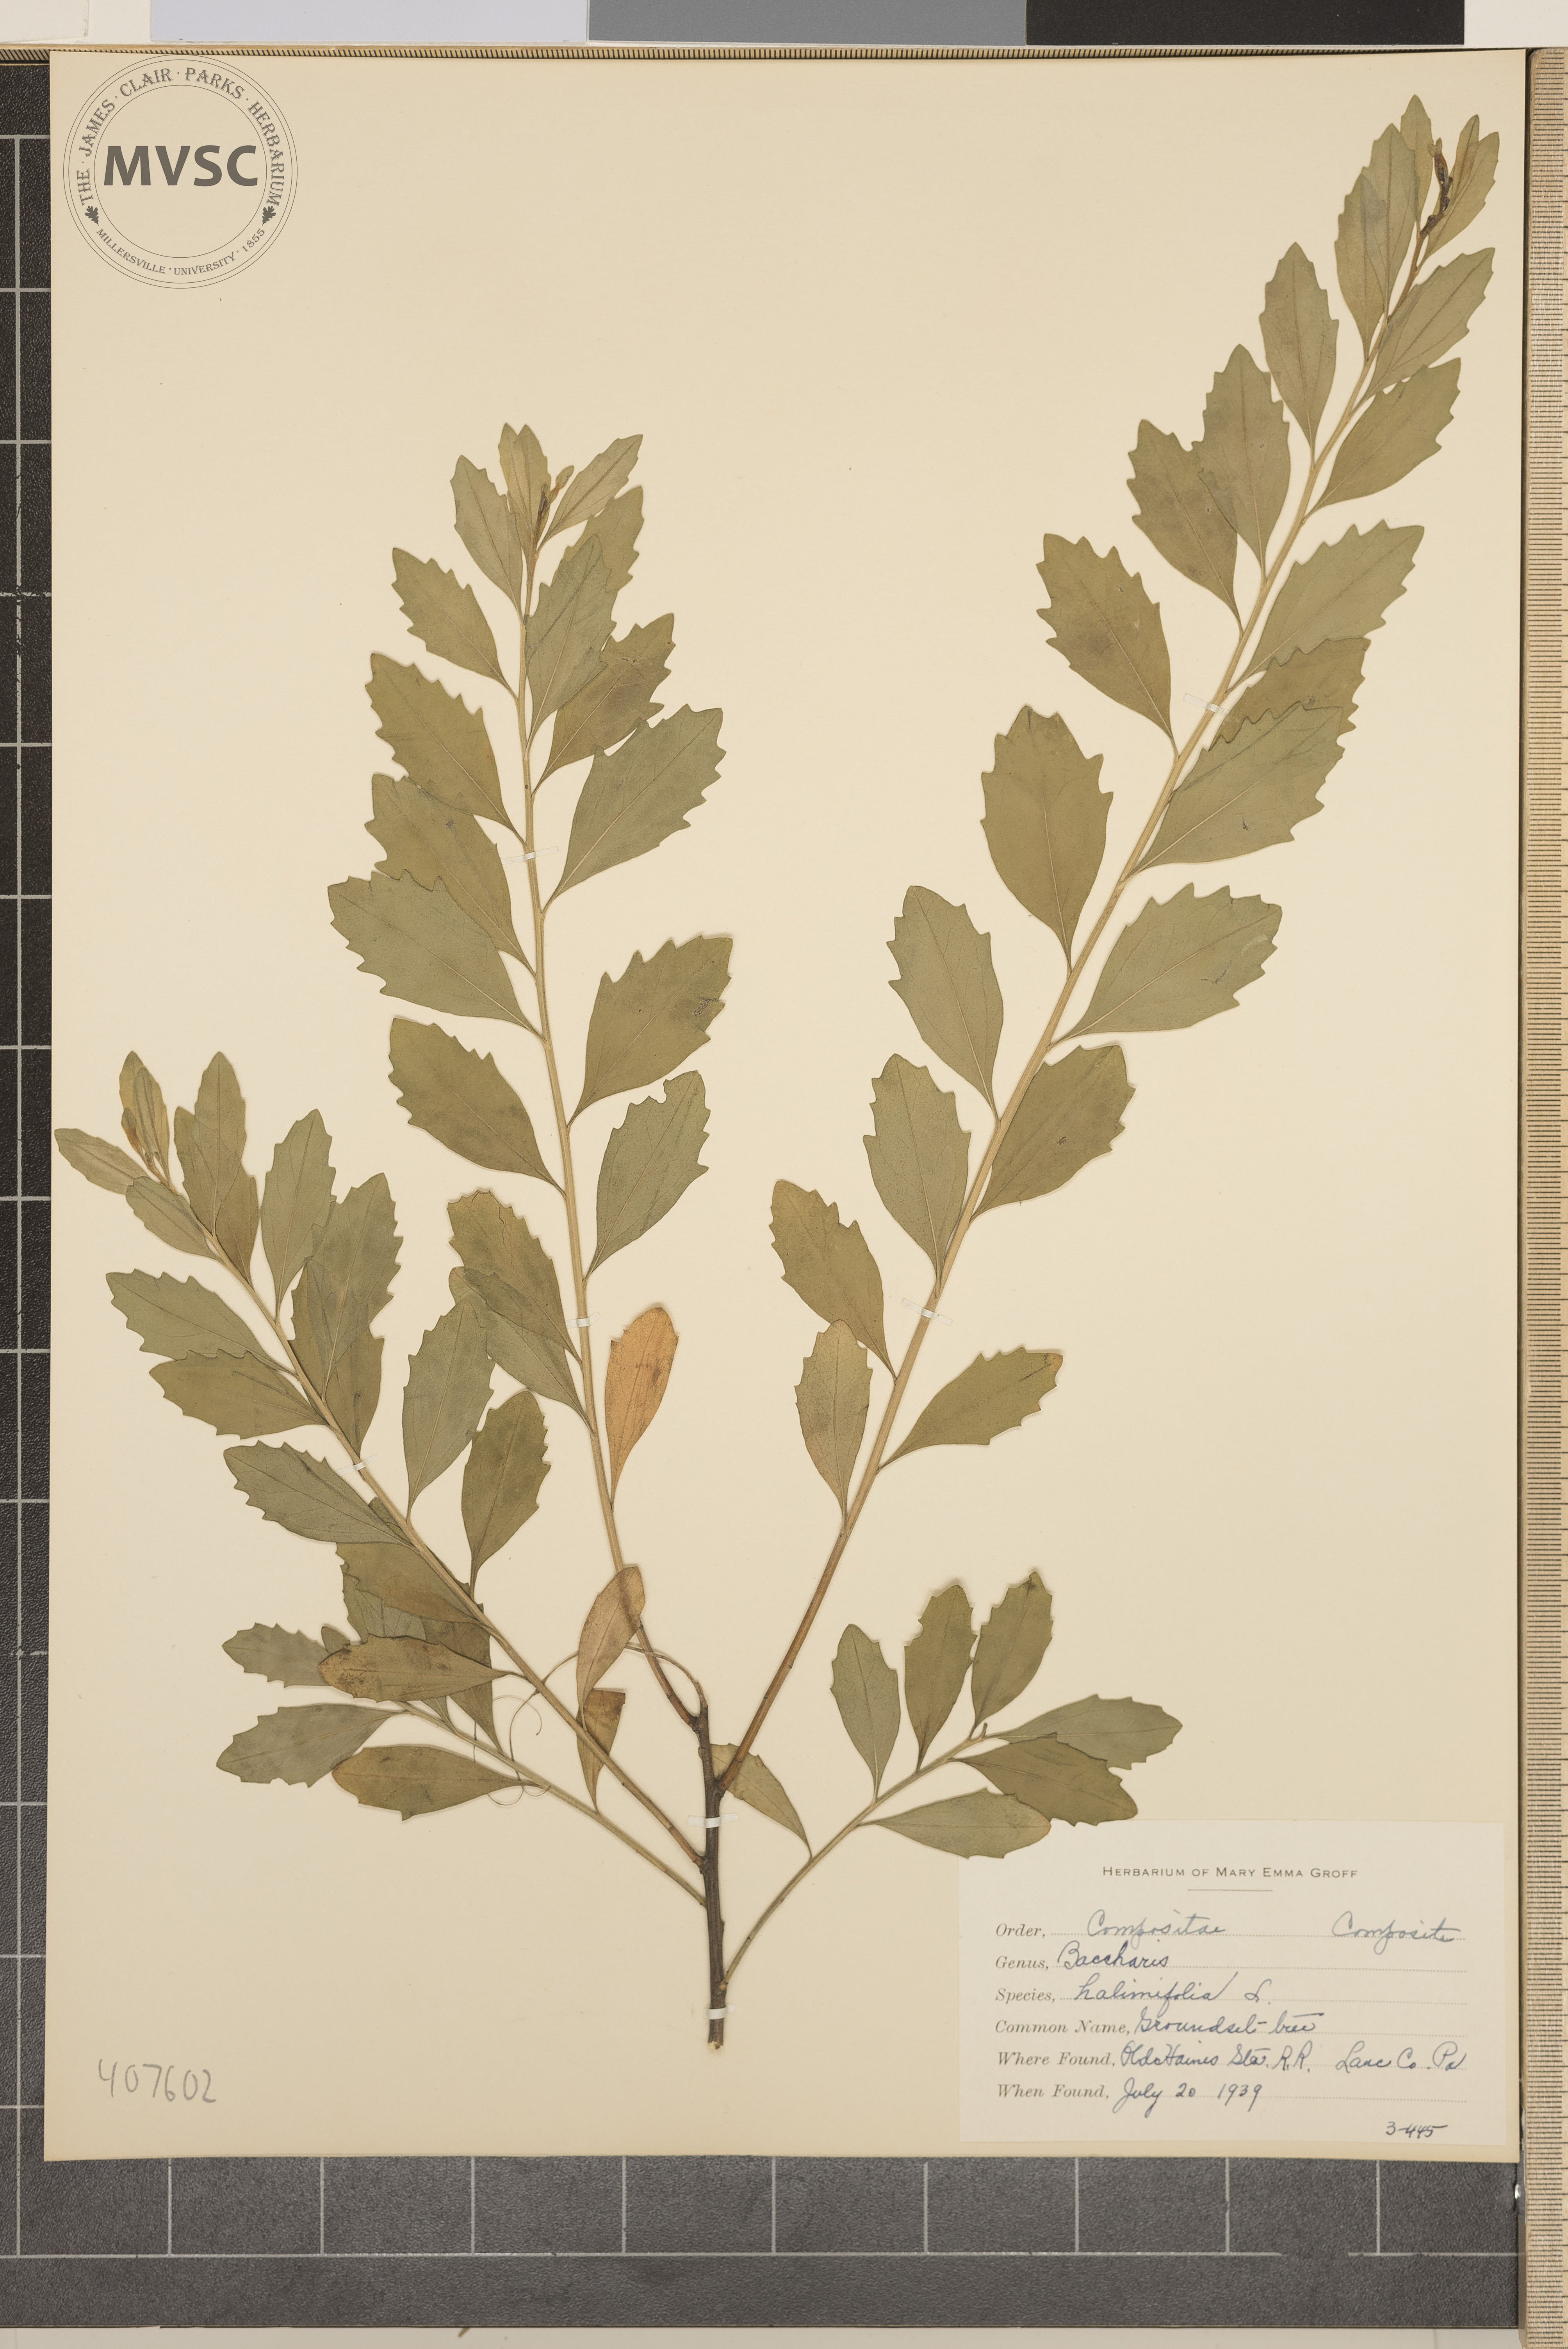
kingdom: Plantae
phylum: Tracheophyta
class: Magnoliopsida
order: Asterales
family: Asteraceae
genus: Baccharis
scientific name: Baccharis halimifolia
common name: eastern baccharis
